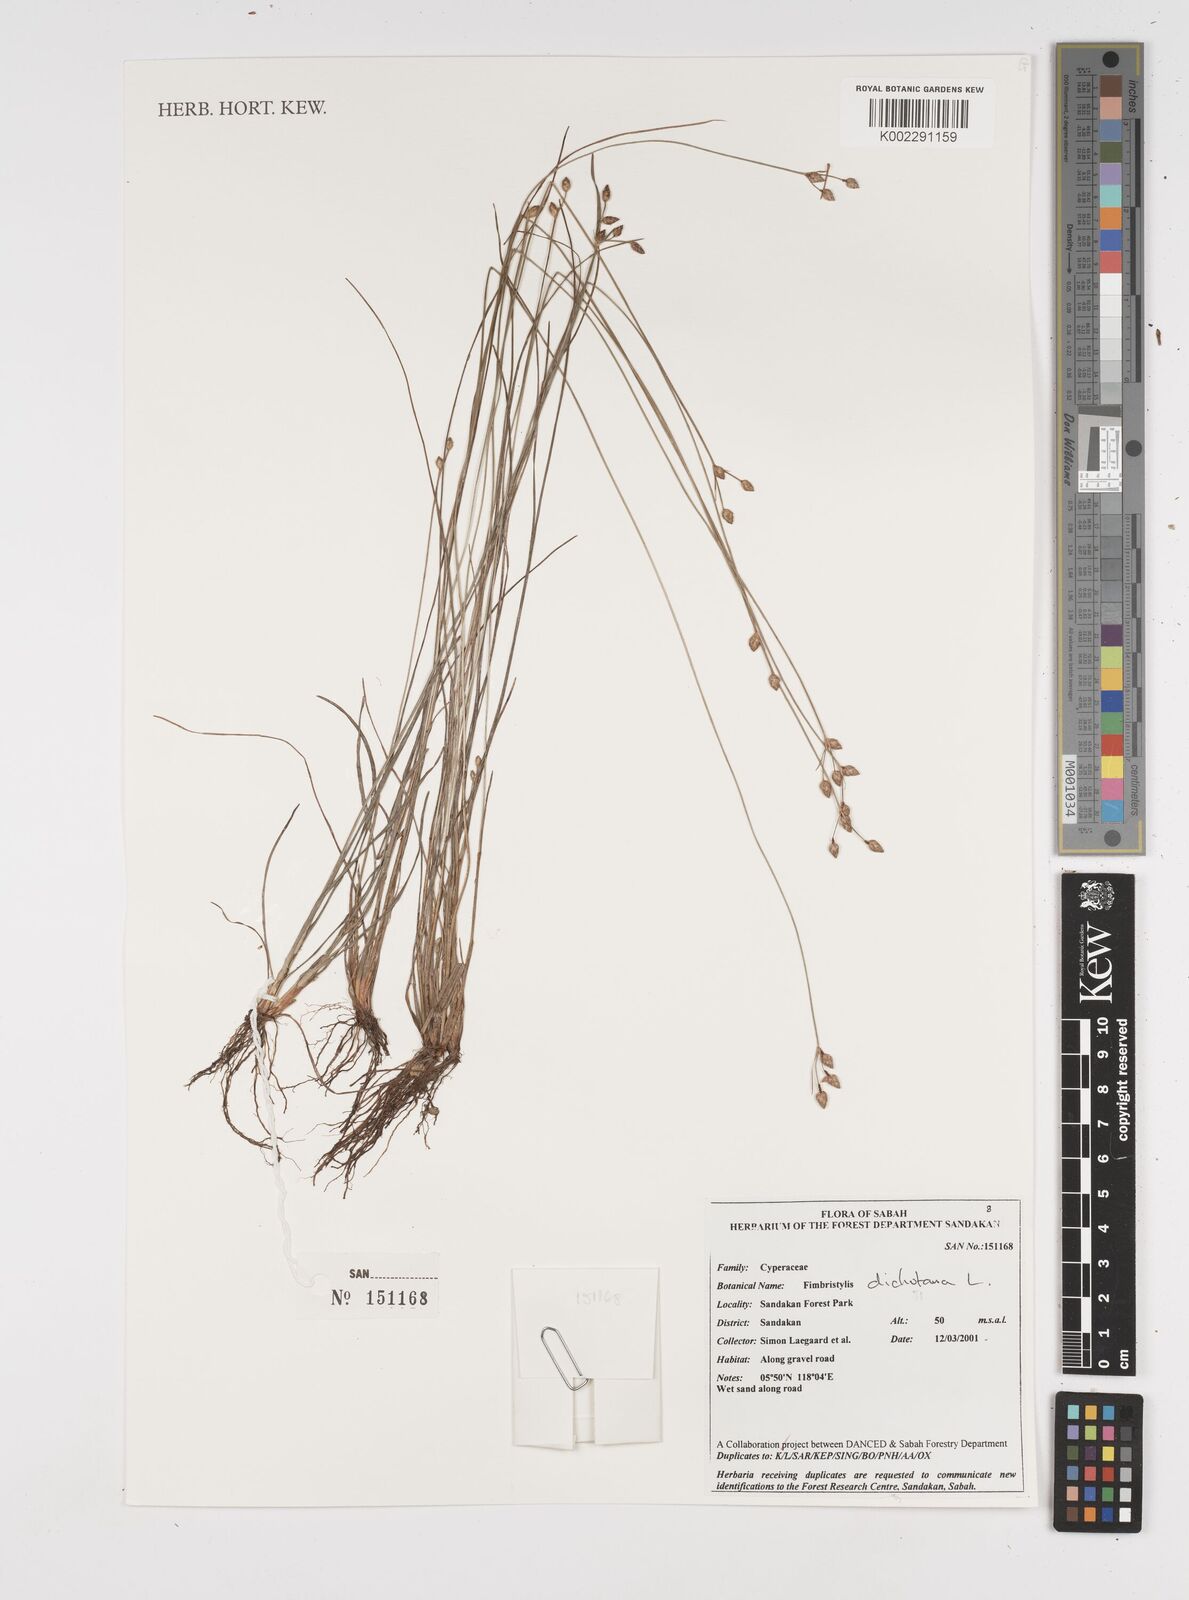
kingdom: Plantae
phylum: Tracheophyta
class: Liliopsida
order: Poales
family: Cyperaceae
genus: Fimbristylis
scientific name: Fimbristylis dichotoma
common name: Forked fimbry
